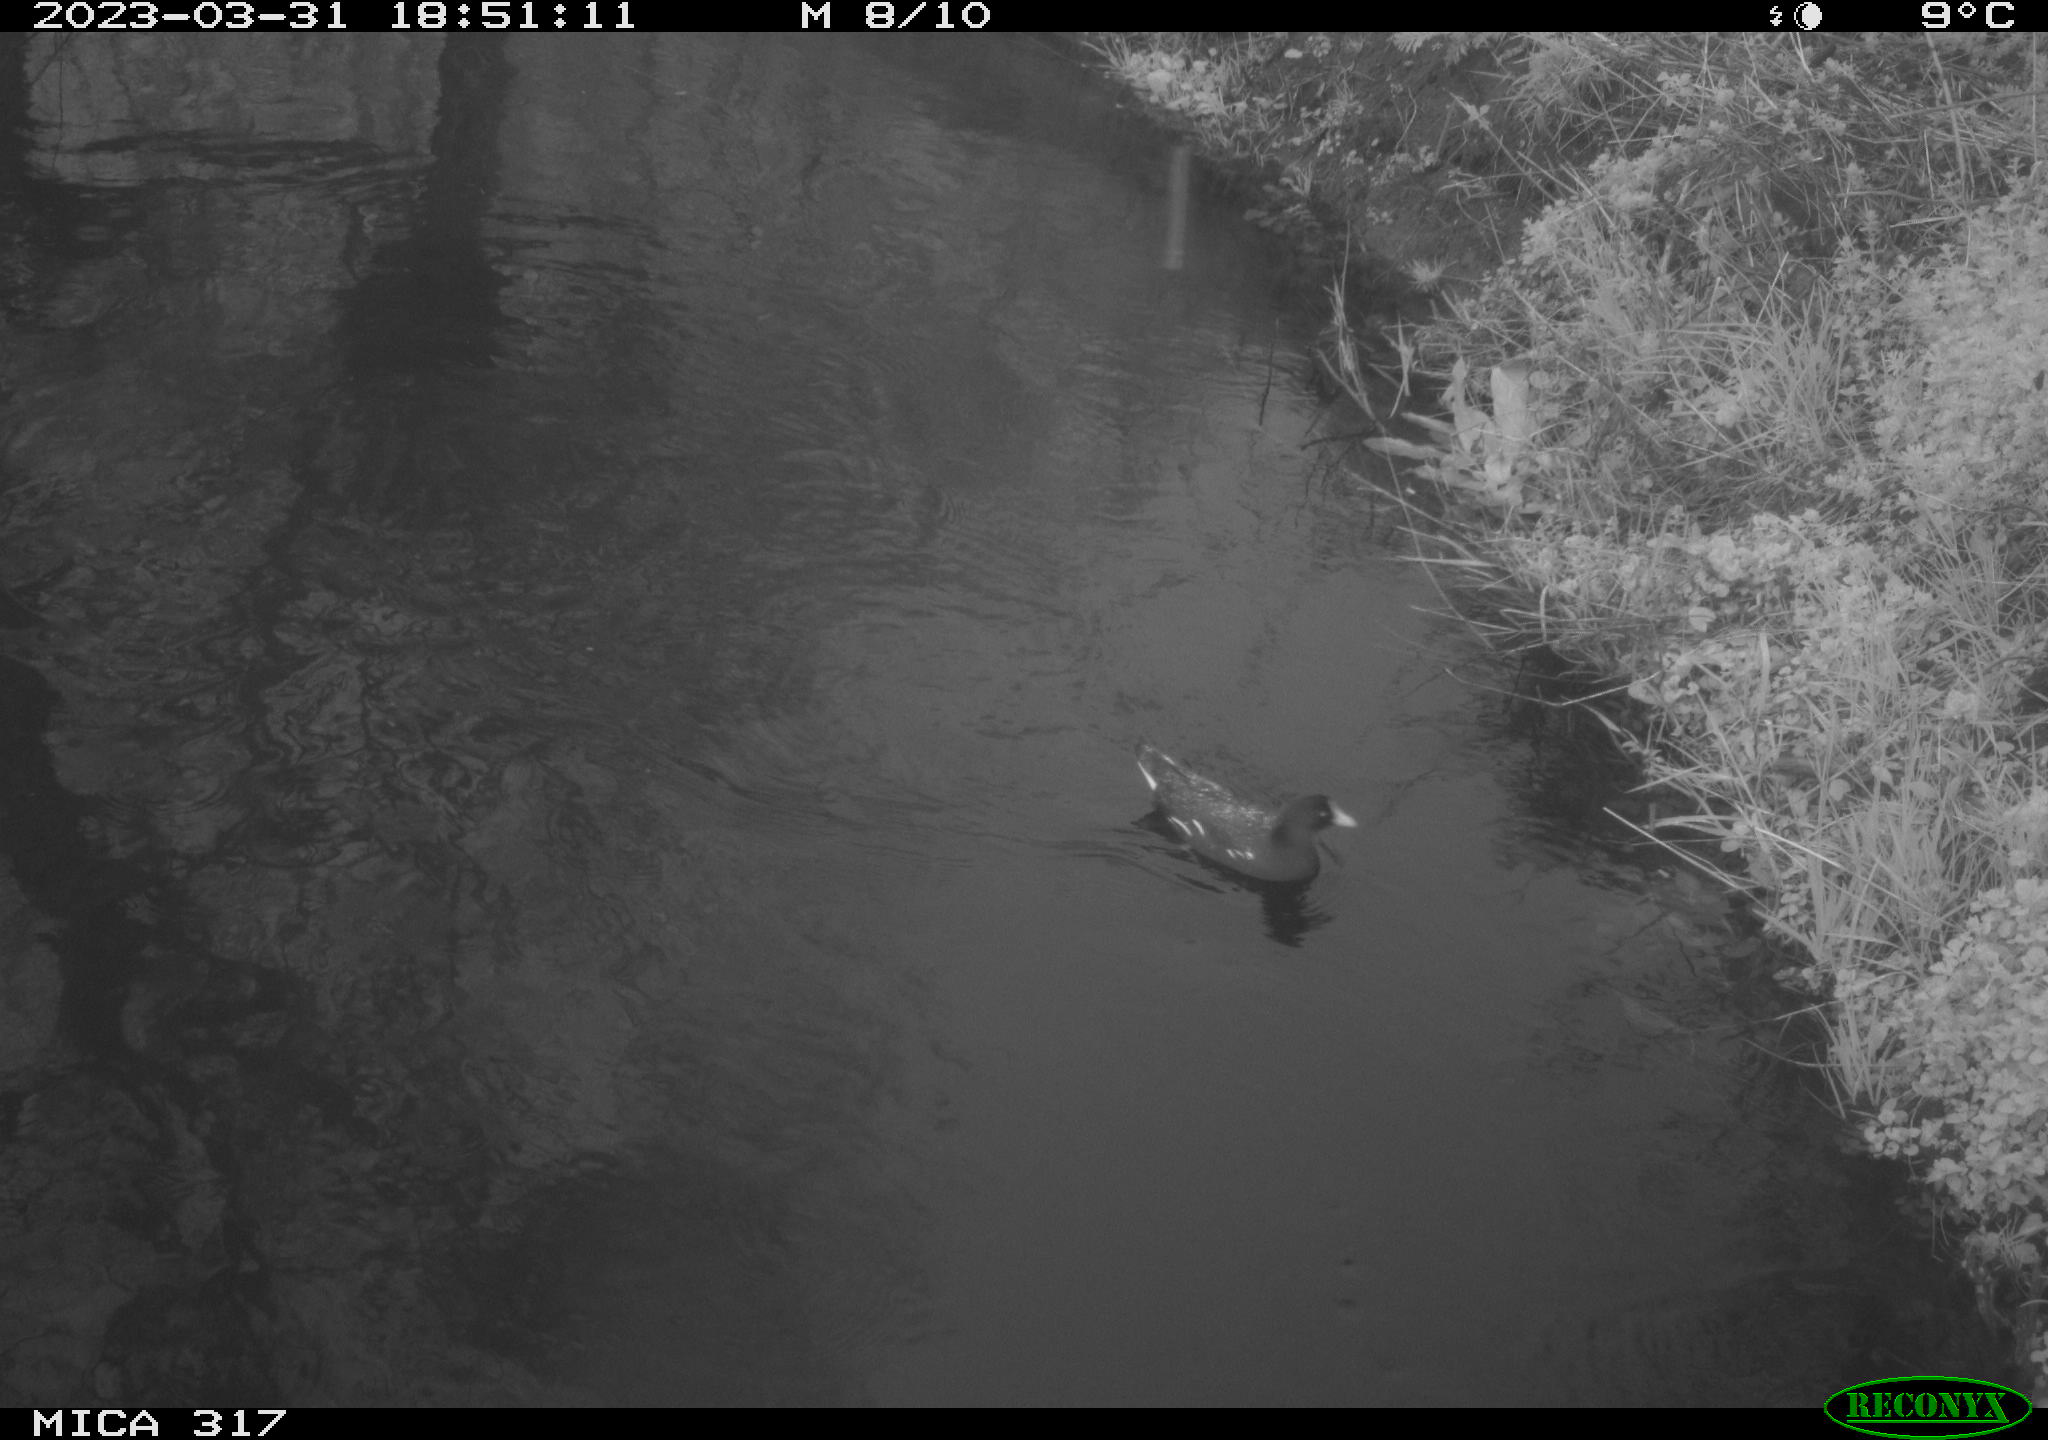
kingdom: Animalia
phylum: Chordata
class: Aves
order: Gruiformes
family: Rallidae
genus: Gallinula
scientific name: Gallinula chloropus
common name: Common moorhen
